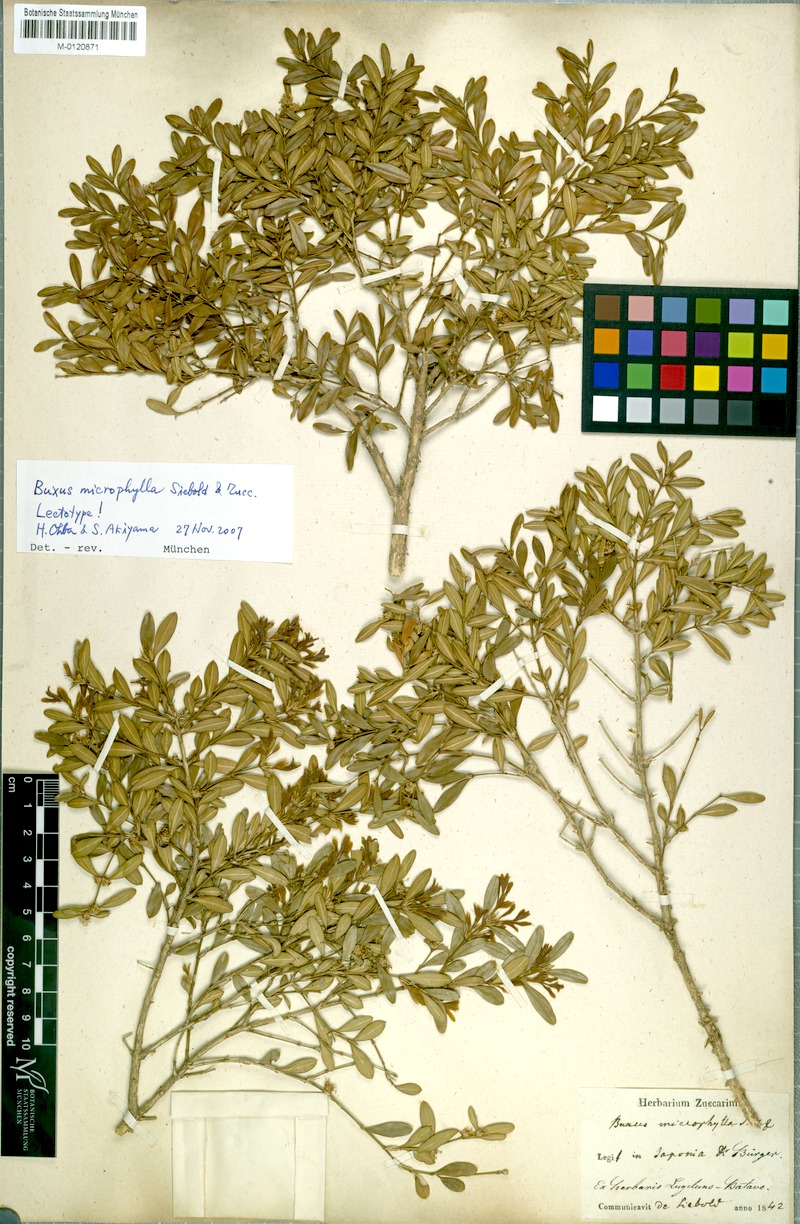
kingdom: Plantae
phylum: Tracheophyta
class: Magnoliopsida
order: Buxales
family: Buxaceae
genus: Buxus
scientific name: Buxus microphylla
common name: Littleleaf boxwood
